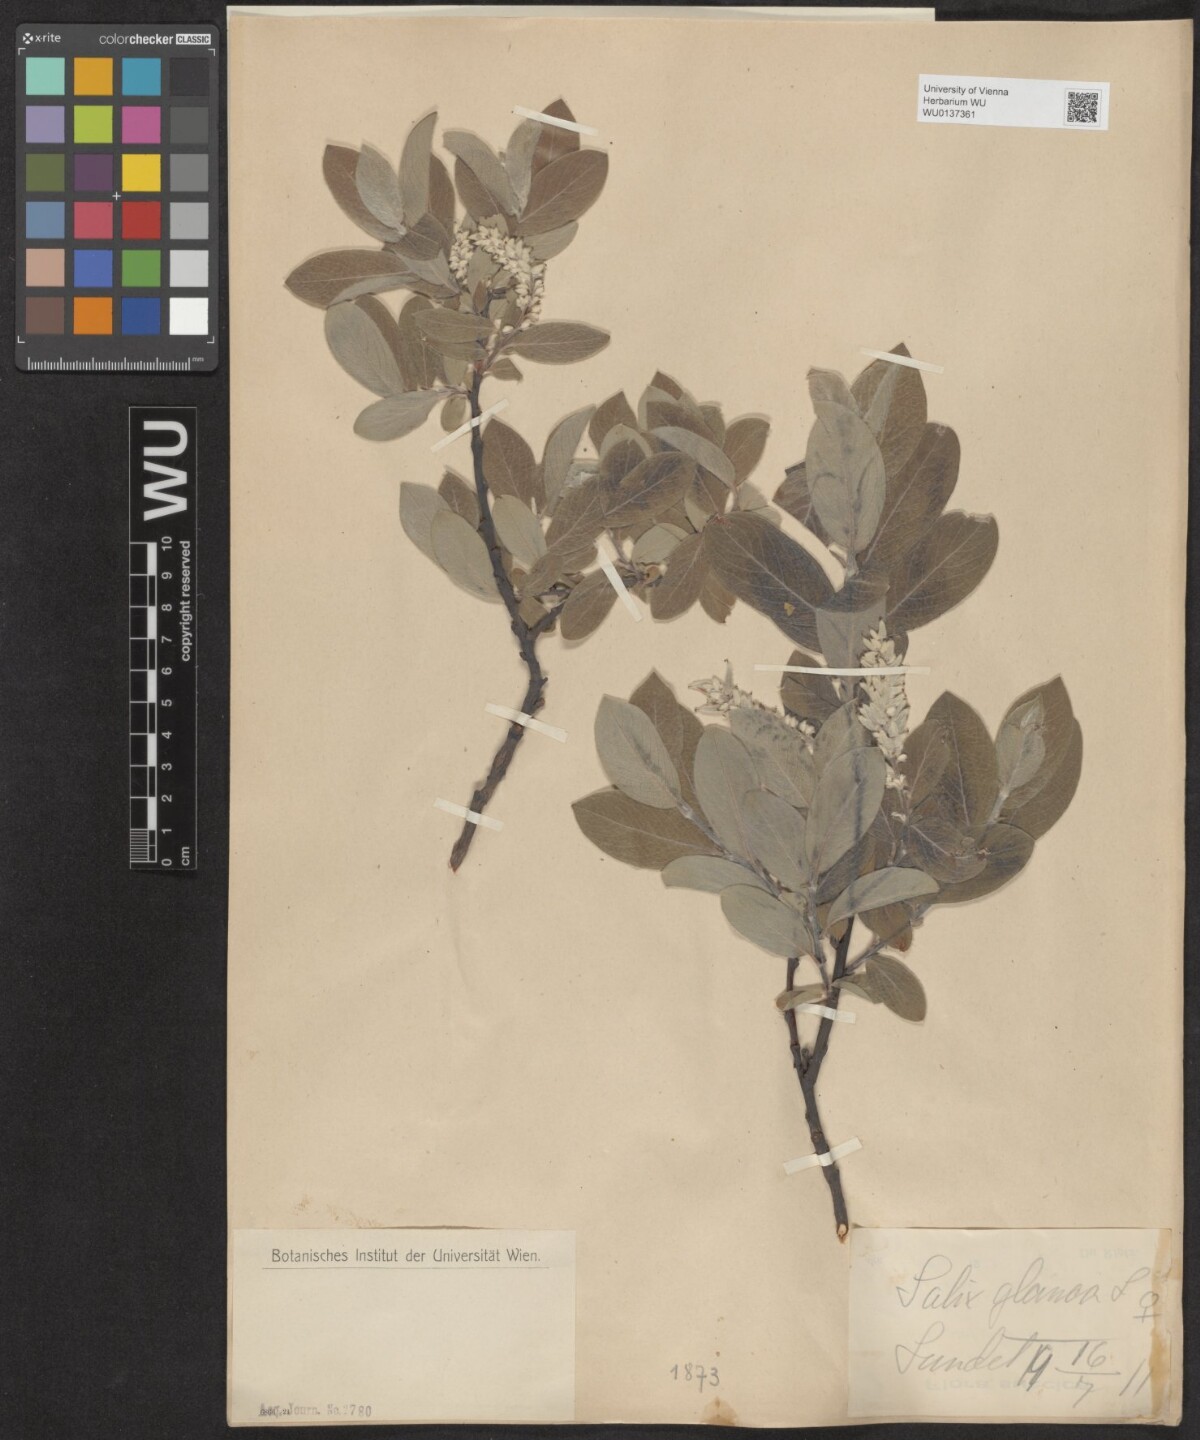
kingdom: Plantae
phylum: Tracheophyta
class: Magnoliopsida
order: Malpighiales
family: Salicaceae
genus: Salix
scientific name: Salix glauca
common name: Glaucous willow
